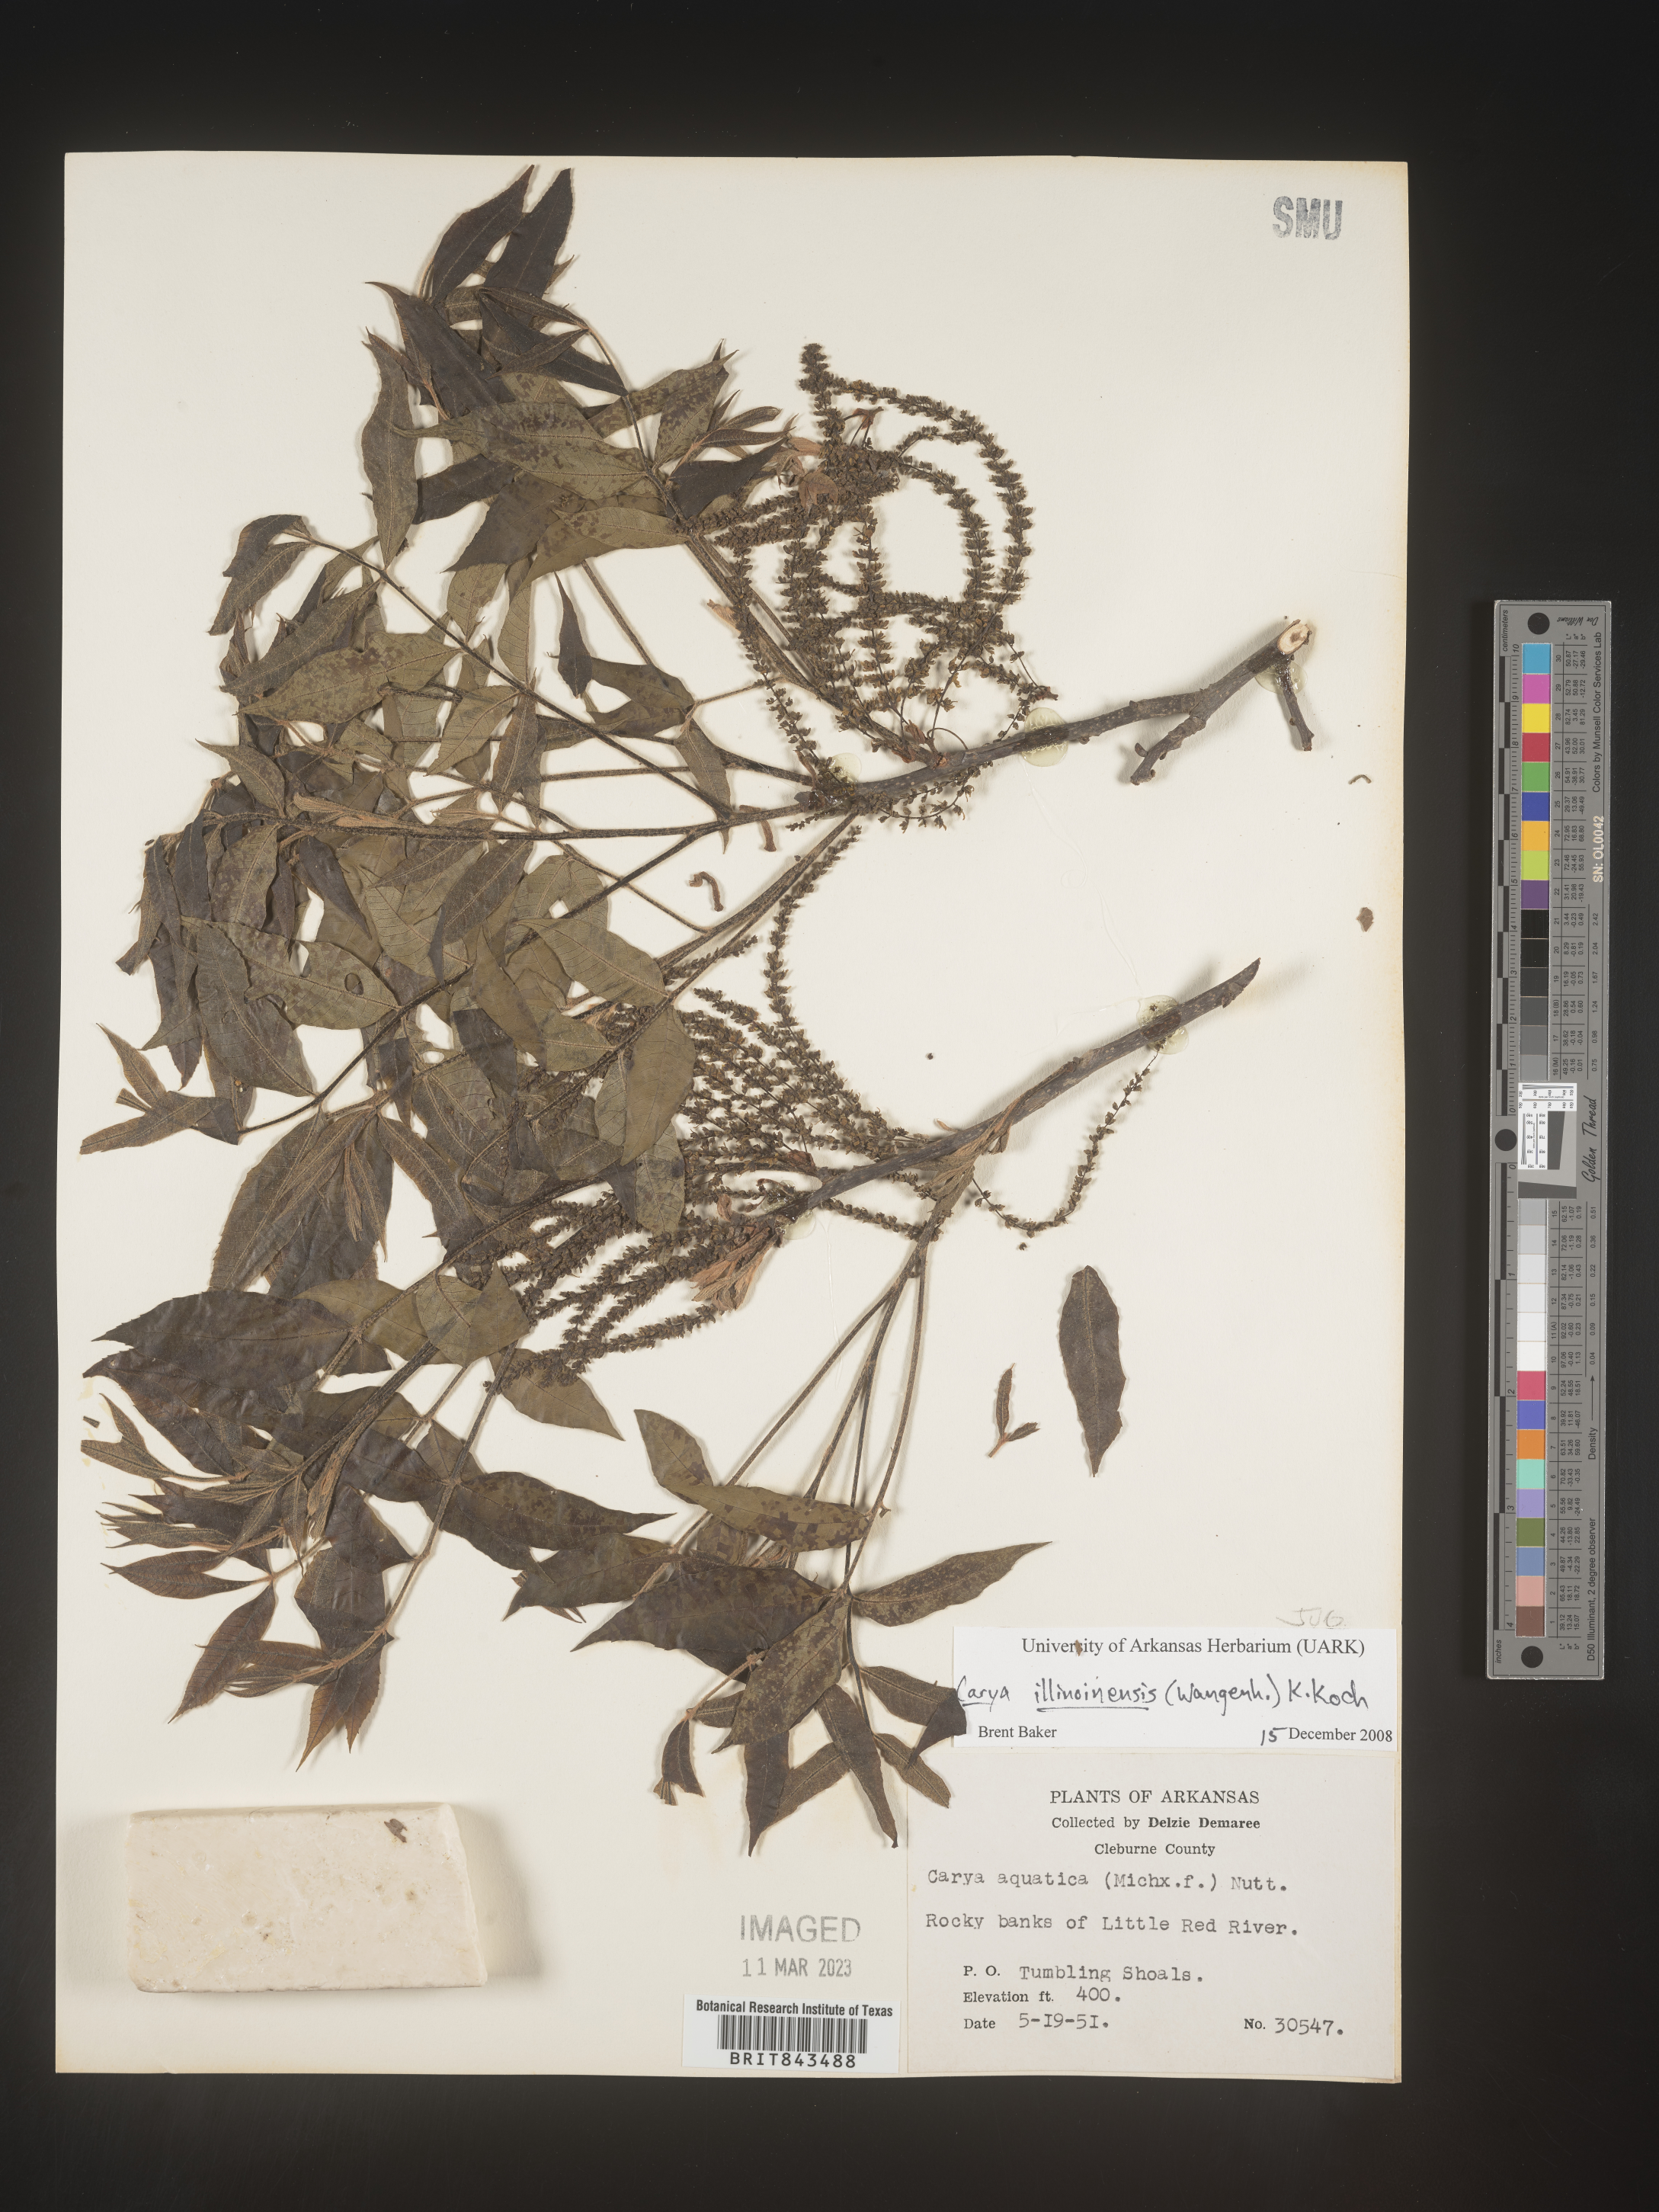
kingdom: Plantae
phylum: Tracheophyta
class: Magnoliopsida
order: Fagales
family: Juglandaceae
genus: Carya
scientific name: Carya illinoinensis
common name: Pecan
